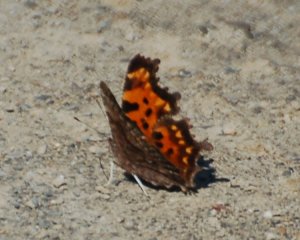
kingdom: Animalia
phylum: Arthropoda
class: Insecta
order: Lepidoptera
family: Nymphalidae
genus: Polygonia
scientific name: Polygonia faunus
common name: Green Comma
